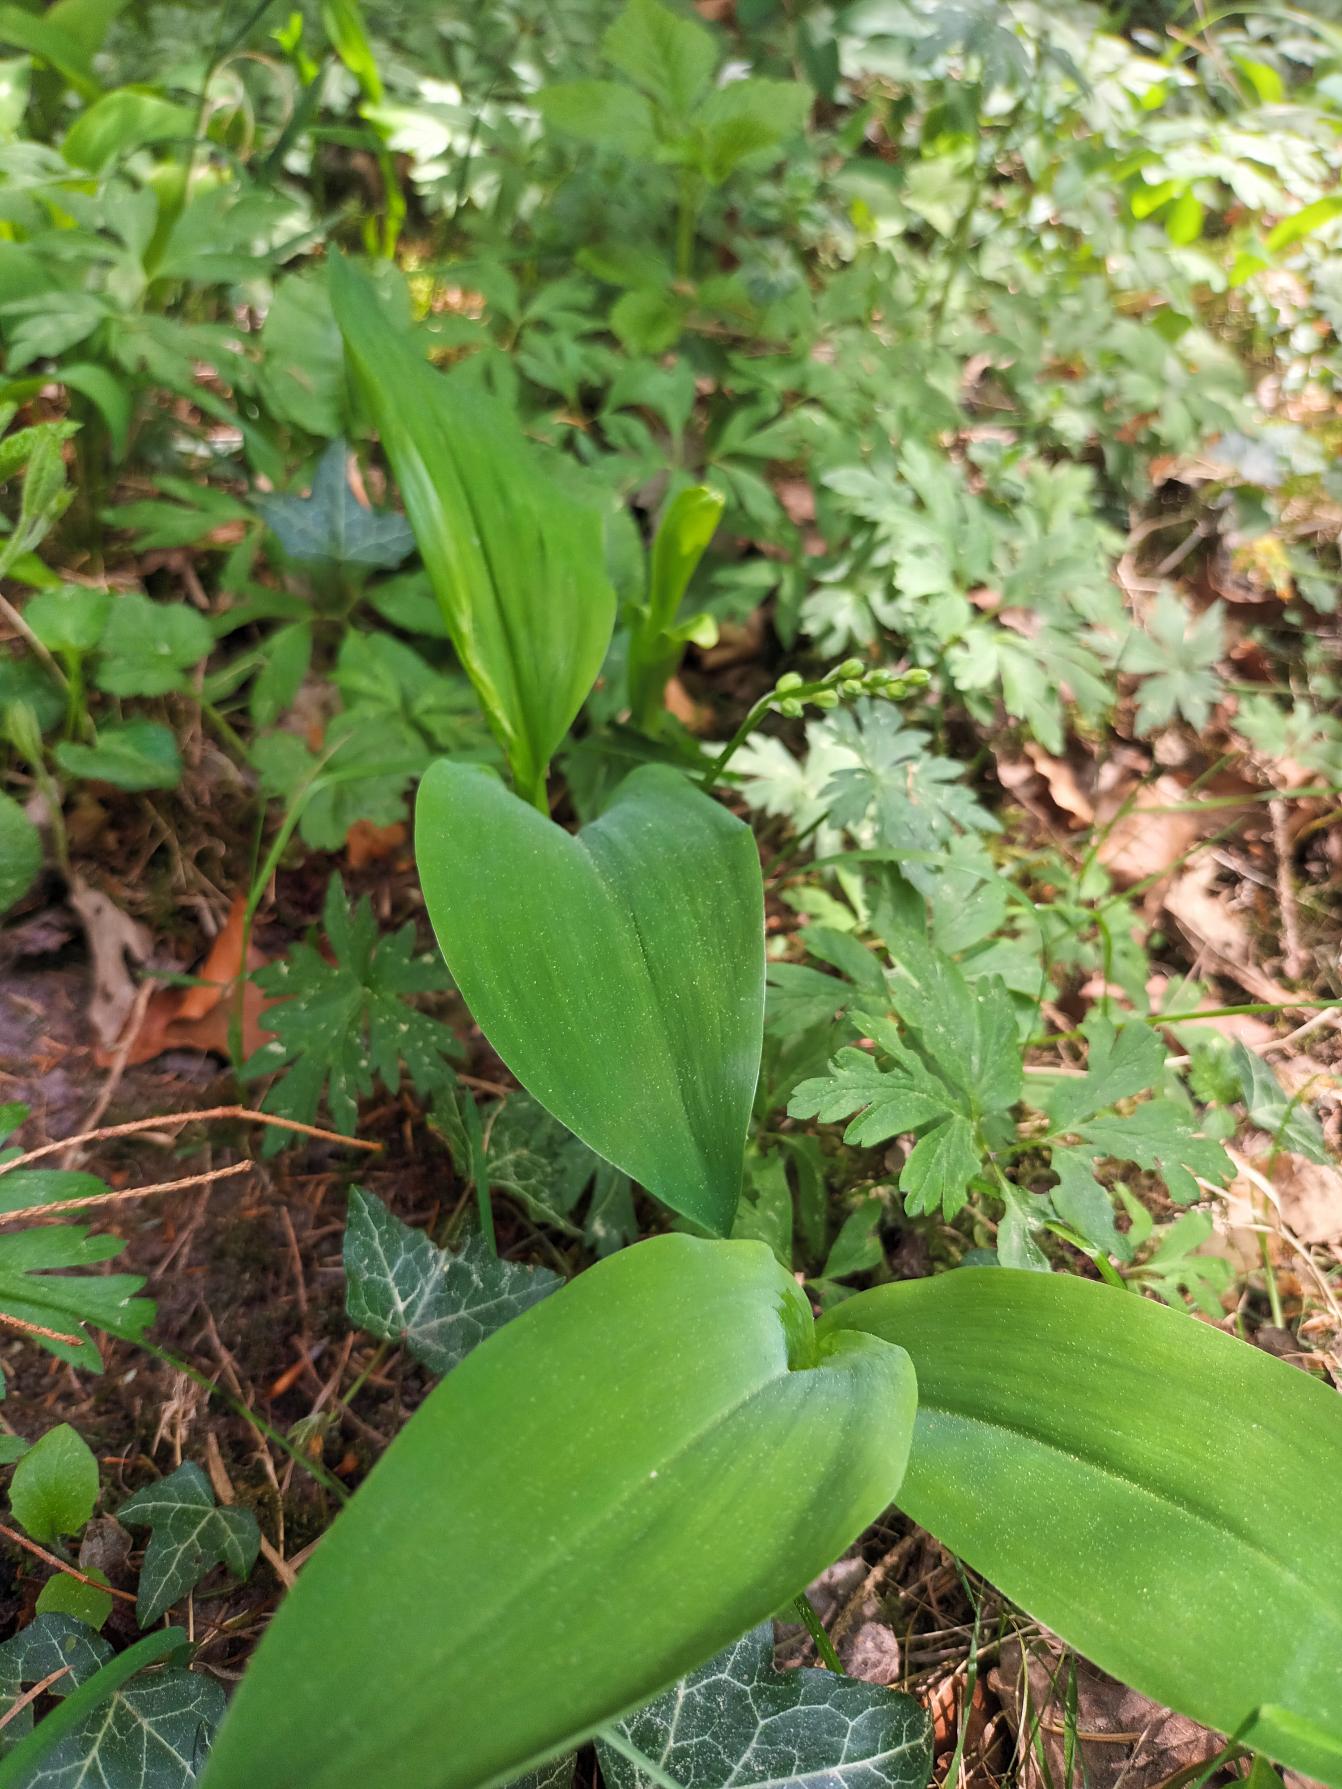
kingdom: Plantae
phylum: Tracheophyta
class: Liliopsida
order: Asparagales
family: Asparagaceae
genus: Convallaria
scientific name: Convallaria majalis
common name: Liljekonval
